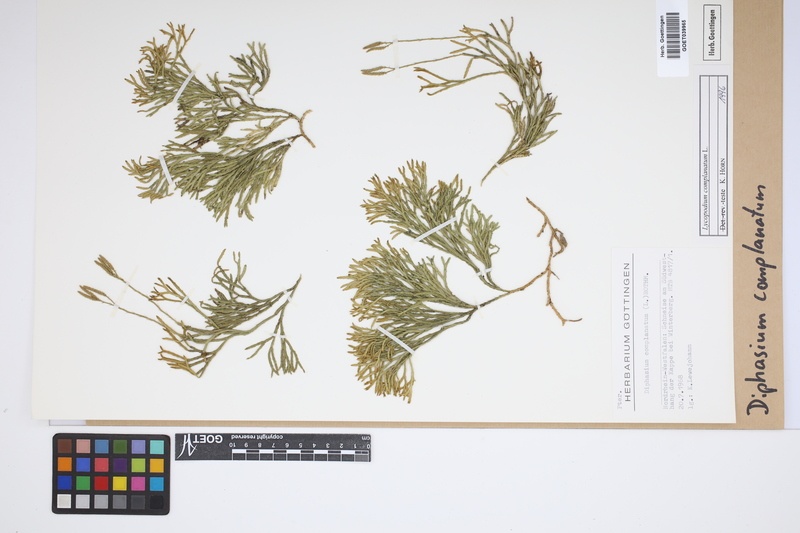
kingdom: Plantae
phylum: Tracheophyta
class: Lycopodiopsida
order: Lycopodiales
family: Lycopodiaceae
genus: Diphasiastrum
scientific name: Diphasiastrum complanatum
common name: Northern running-pine
